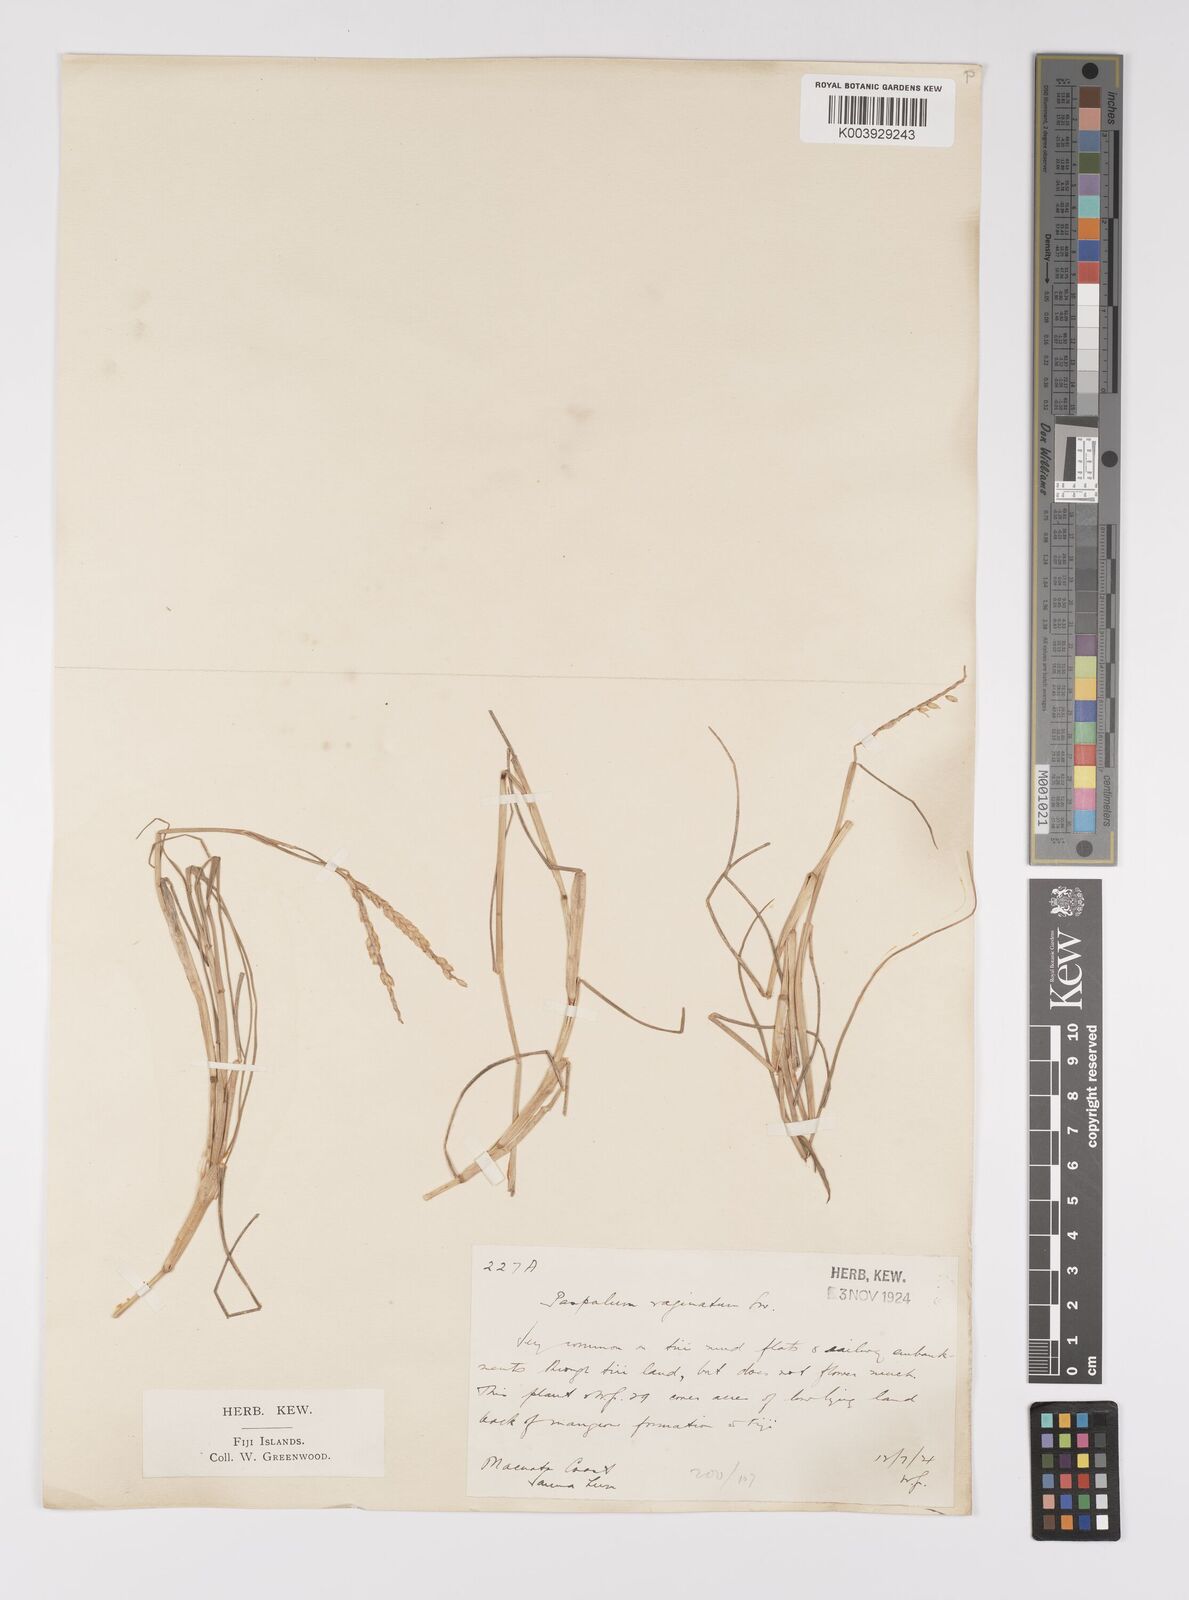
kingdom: Plantae
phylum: Tracheophyta
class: Liliopsida
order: Poales
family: Poaceae
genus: Paspalum
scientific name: Paspalum vaginatum
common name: Seashore paspalum
